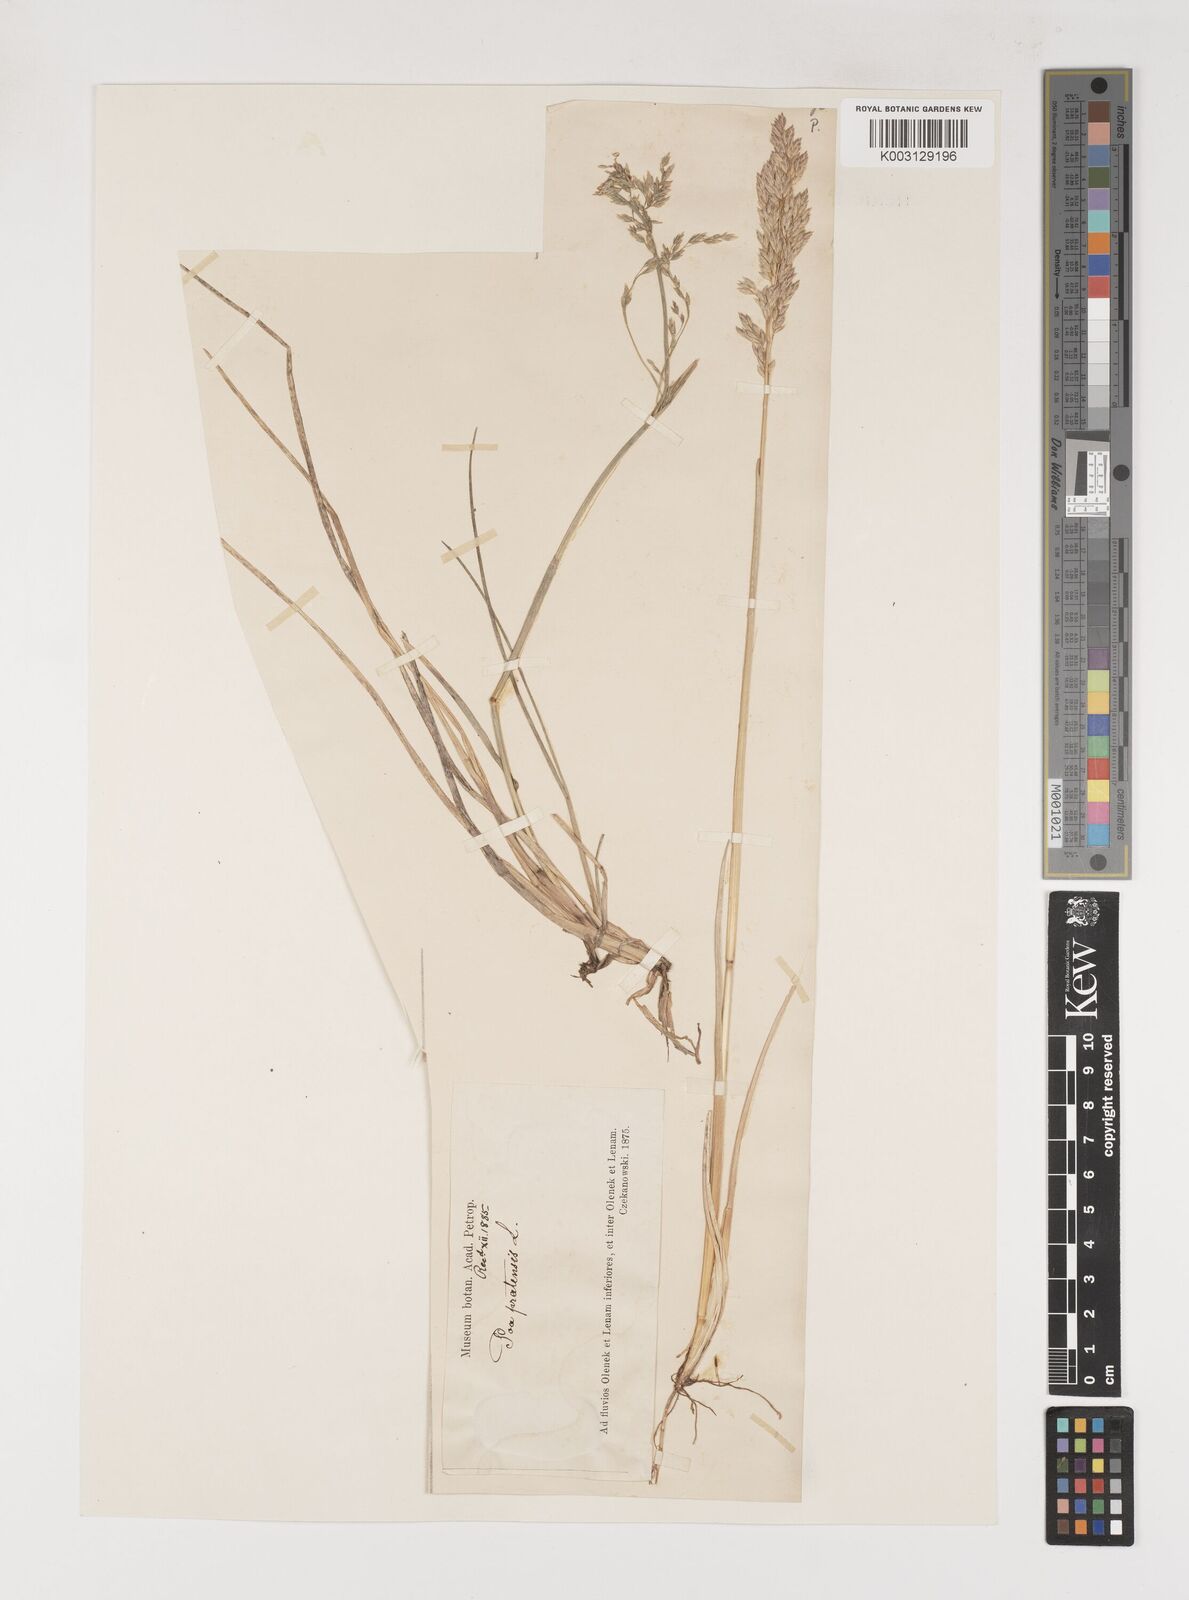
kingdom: Plantae
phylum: Tracheophyta
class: Liliopsida
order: Poales
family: Poaceae
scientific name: Poaceae
